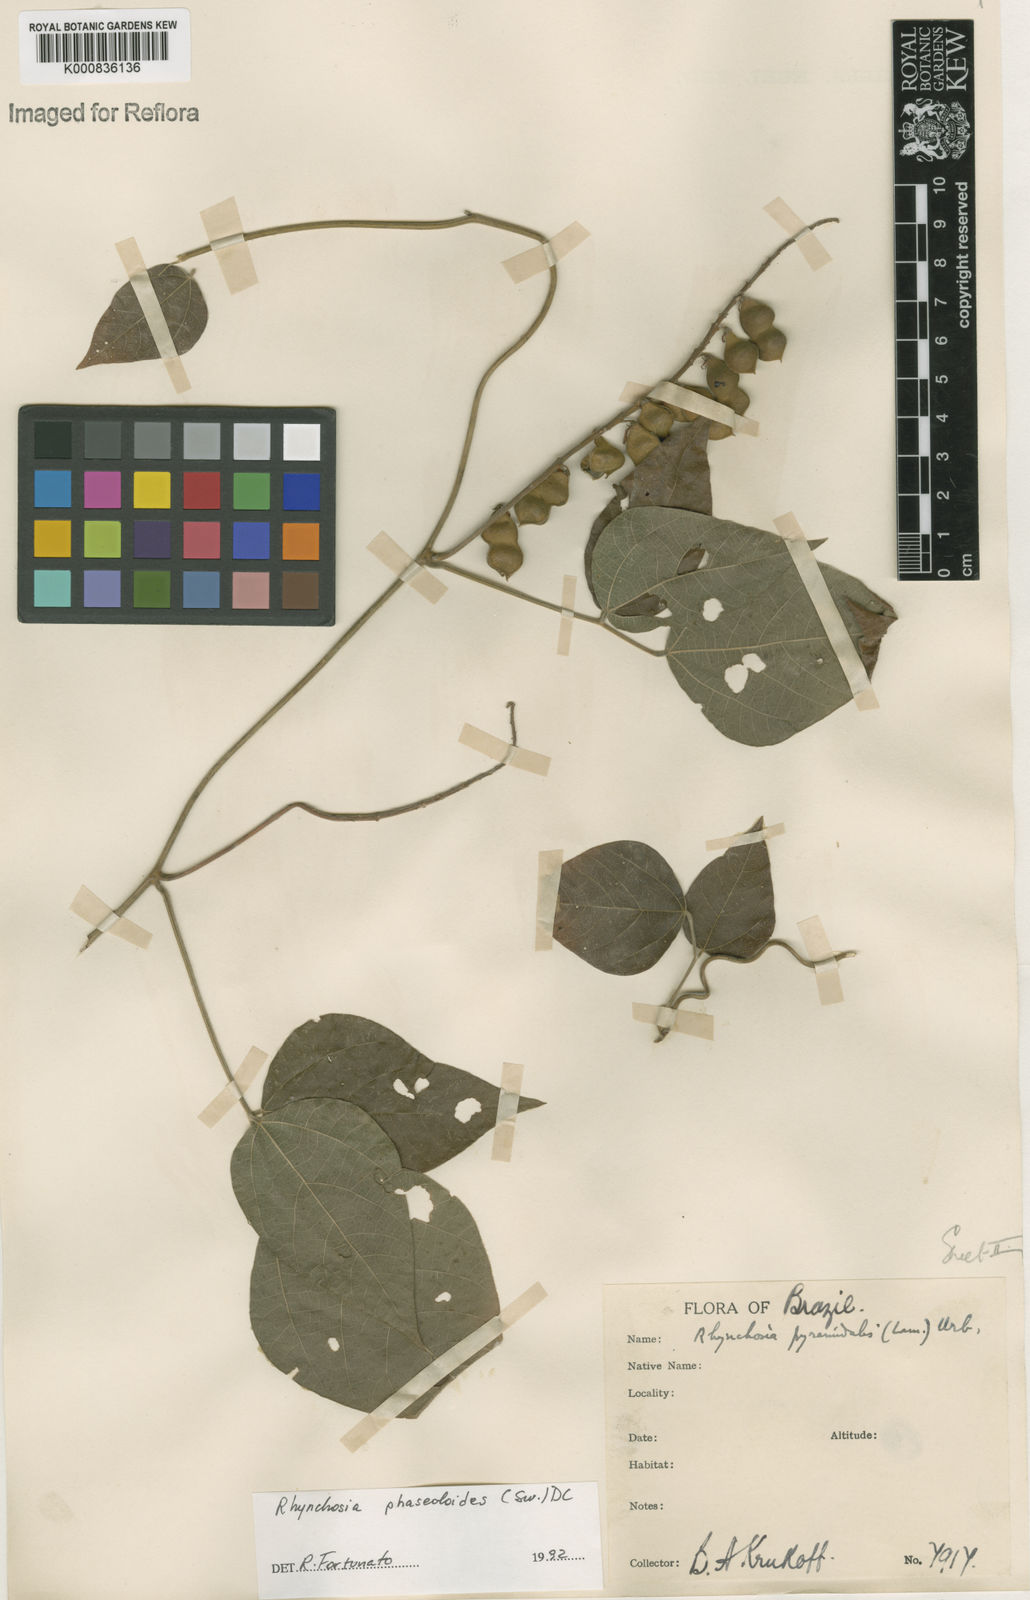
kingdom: Plantae
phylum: Tracheophyta
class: Magnoliopsida
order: Fabales
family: Fabaceae
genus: Rhynchosia
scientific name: Rhynchosia phaseoloides
